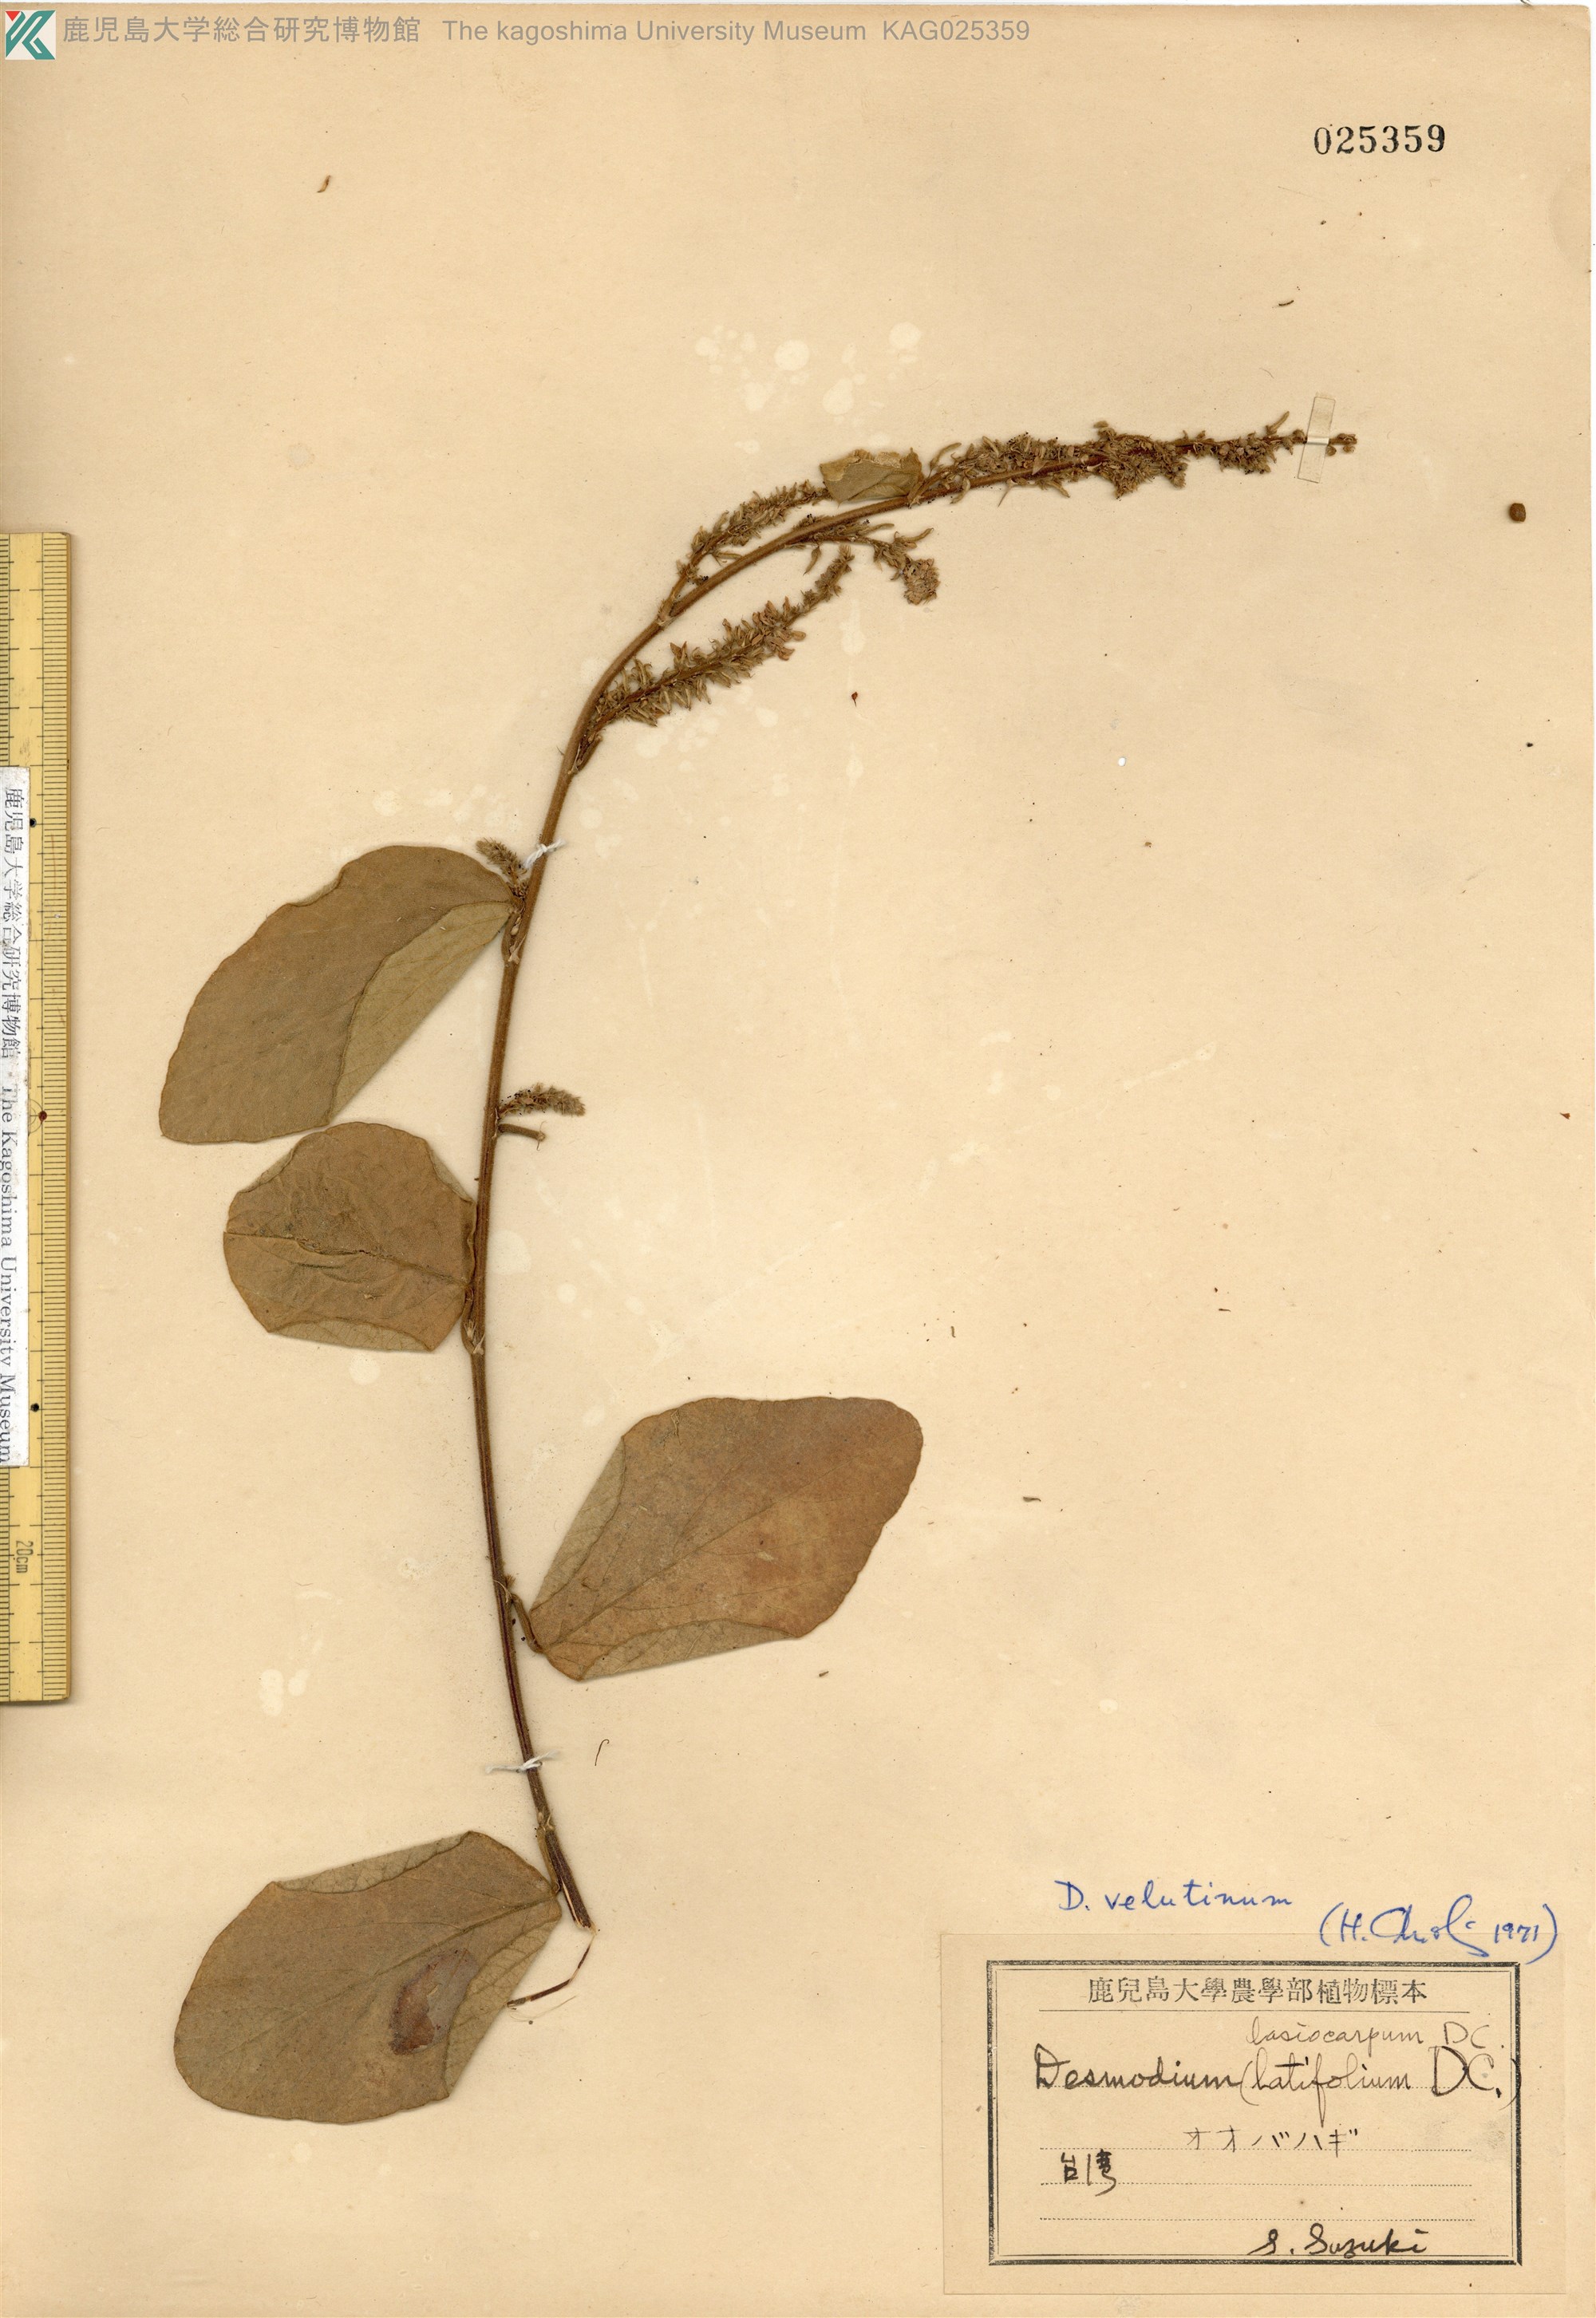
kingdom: Plantae
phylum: Tracheophyta
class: Magnoliopsida
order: Fabales
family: Fabaceae
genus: Polhillides
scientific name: Polhillides velutina
